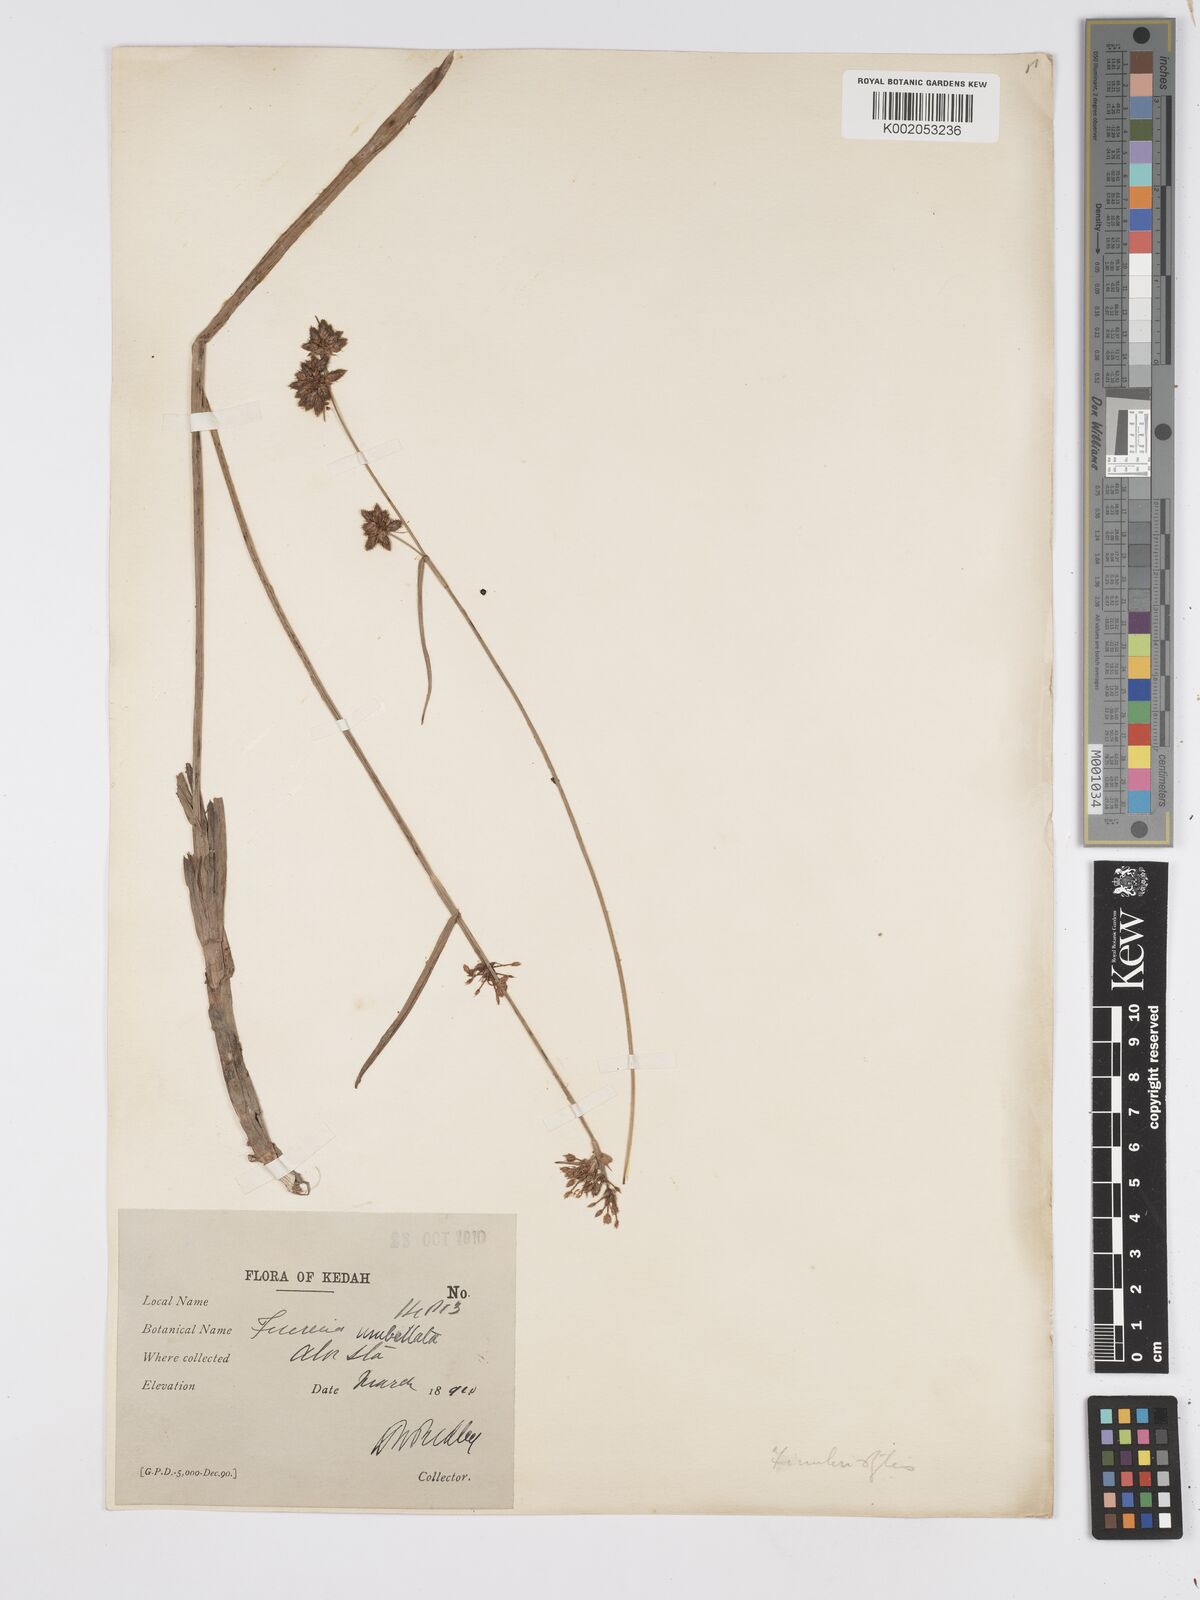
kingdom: Plantae
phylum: Tracheophyta
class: Liliopsida
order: Poales
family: Cyperaceae
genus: Fuirena
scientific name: Fuirena umbellata
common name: Yefen
